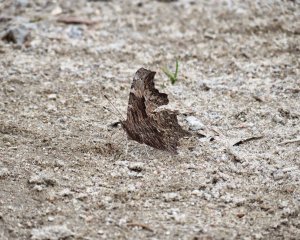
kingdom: Animalia
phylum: Arthropoda
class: Insecta
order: Lepidoptera
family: Nymphalidae
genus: Polygonia
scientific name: Polygonia progne
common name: Gray Comma
